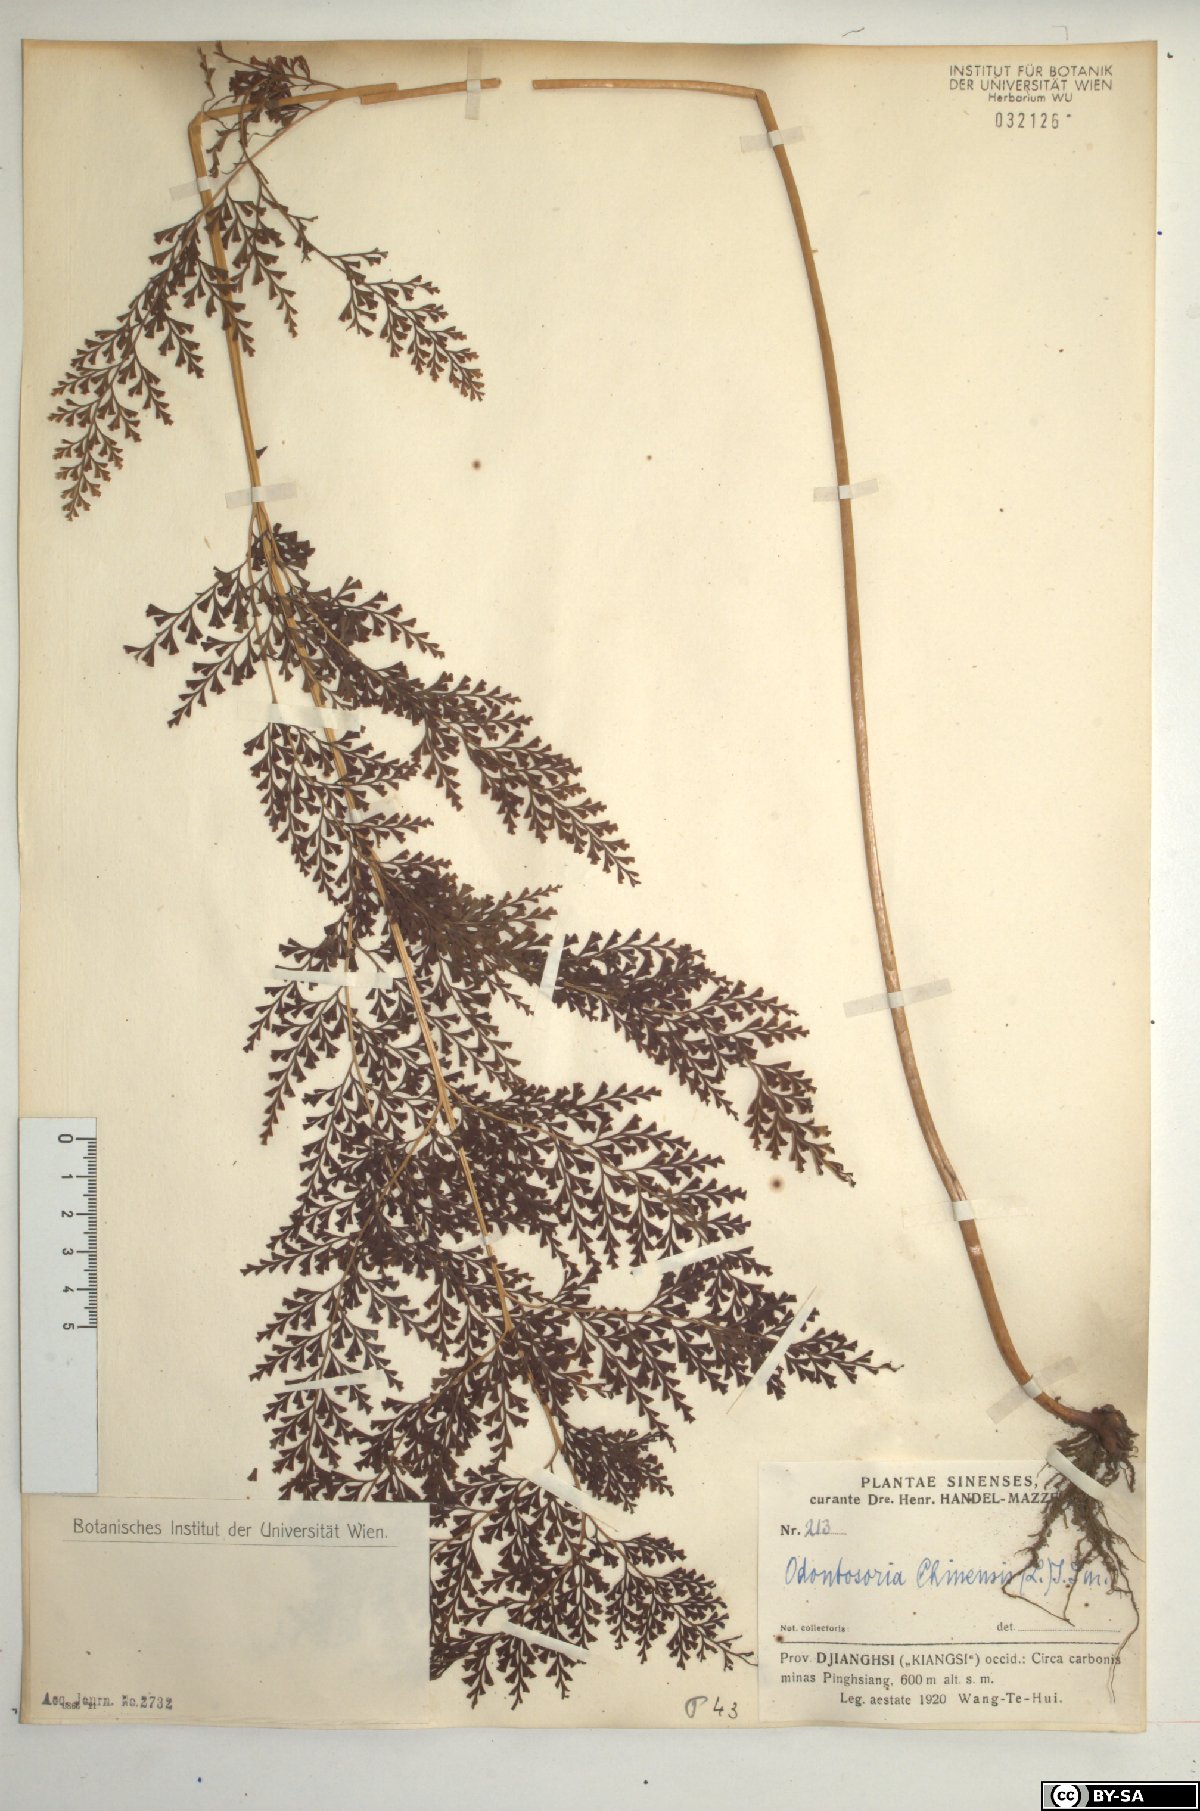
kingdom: Plantae
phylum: Tracheophyta
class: Polypodiopsida
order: Polypodiales
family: Lindsaeaceae
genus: Odontosoria
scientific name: Odontosoria chinensis
